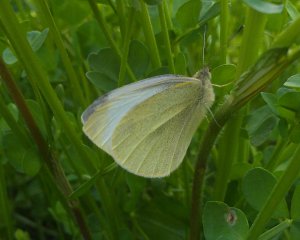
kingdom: Animalia
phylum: Arthropoda
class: Insecta
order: Lepidoptera
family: Pieridae
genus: Pieris
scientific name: Pieris rapae
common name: Cabbage White
